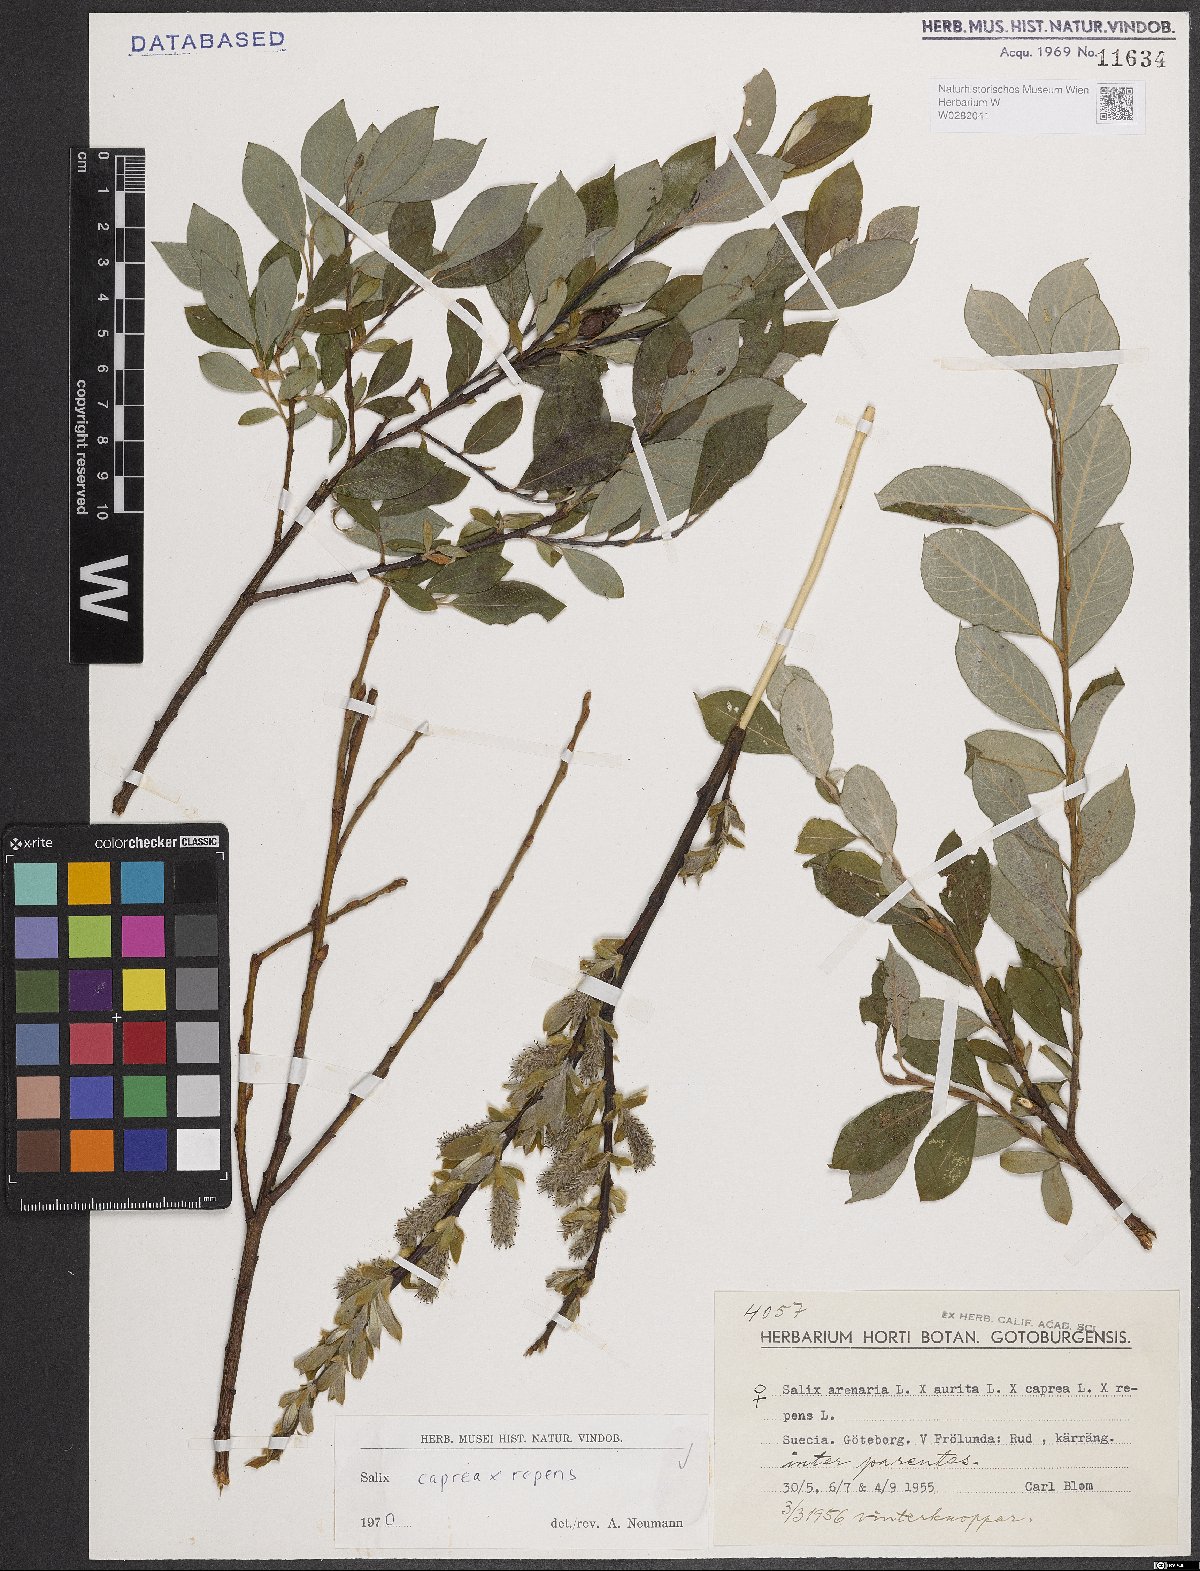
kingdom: Plantae
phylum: Tracheophyta
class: Magnoliopsida
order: Malpighiales
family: Salicaceae
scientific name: Salicaceae
